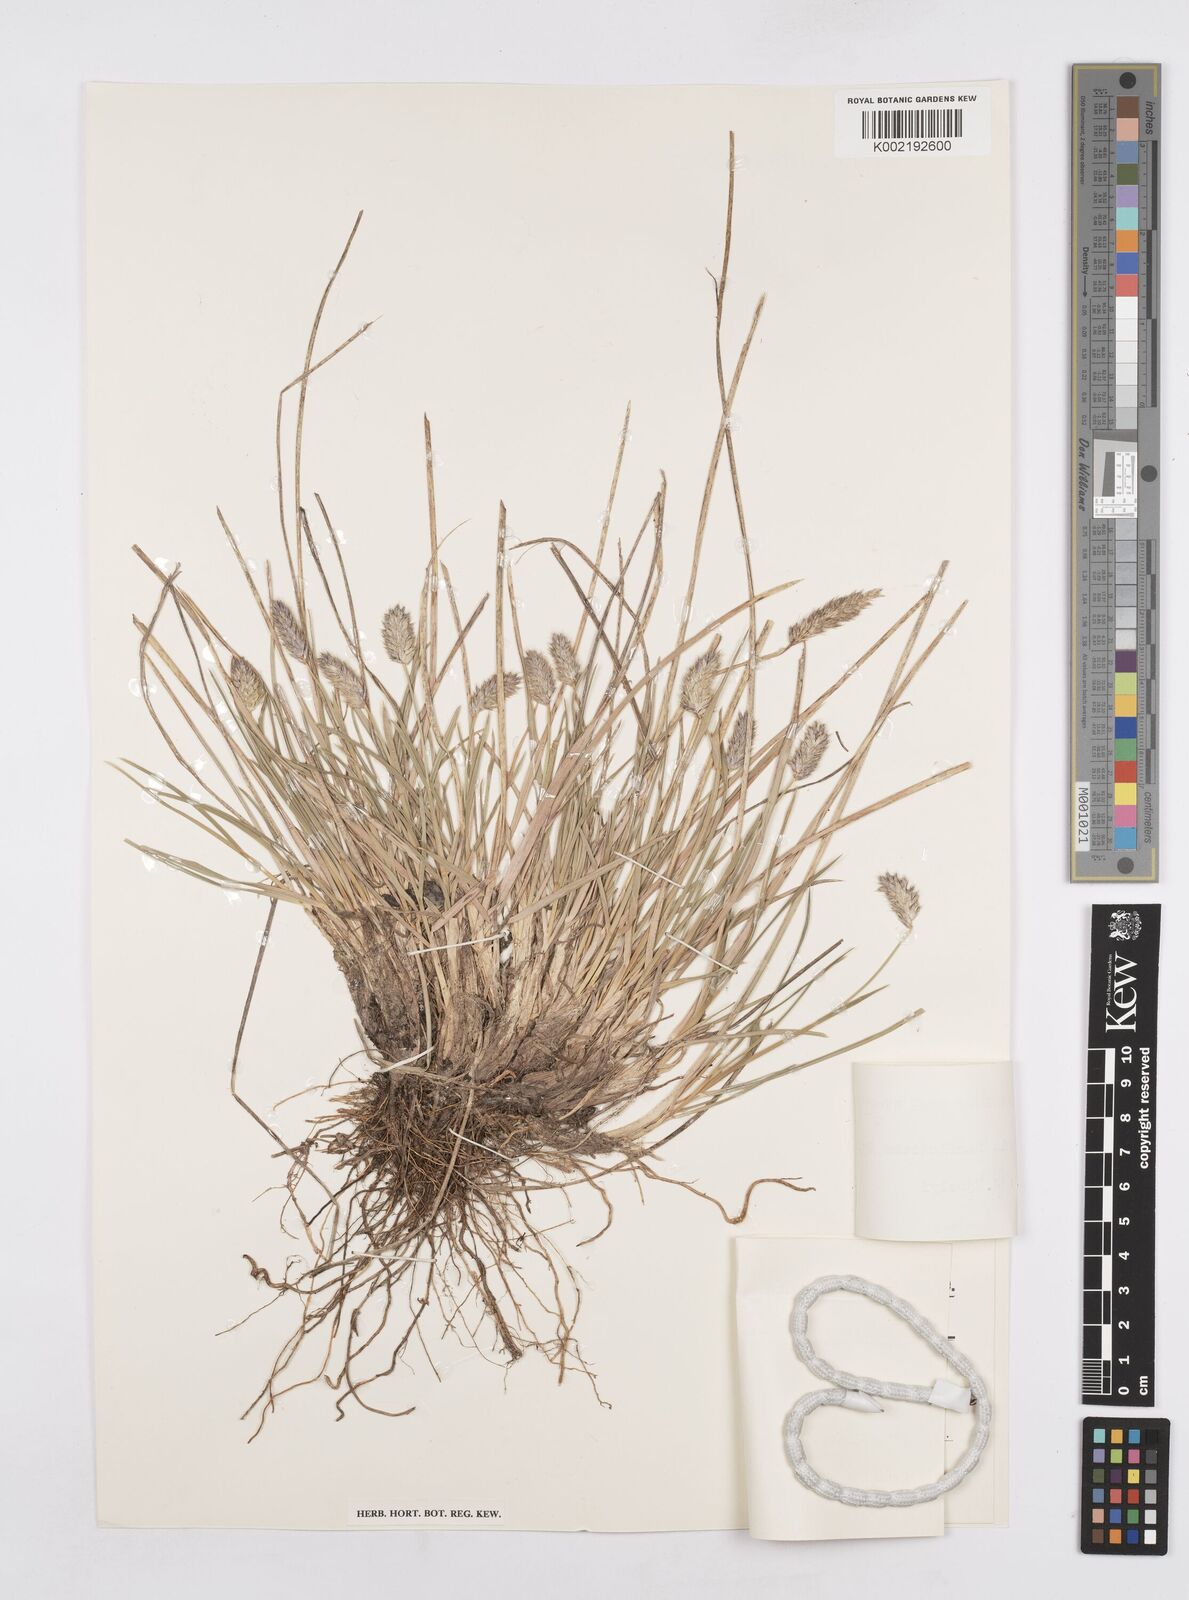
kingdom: Plantae
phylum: Tracheophyta
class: Liliopsida
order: Poales
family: Poaceae
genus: Sesleria
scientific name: Sesleria heufleriana
